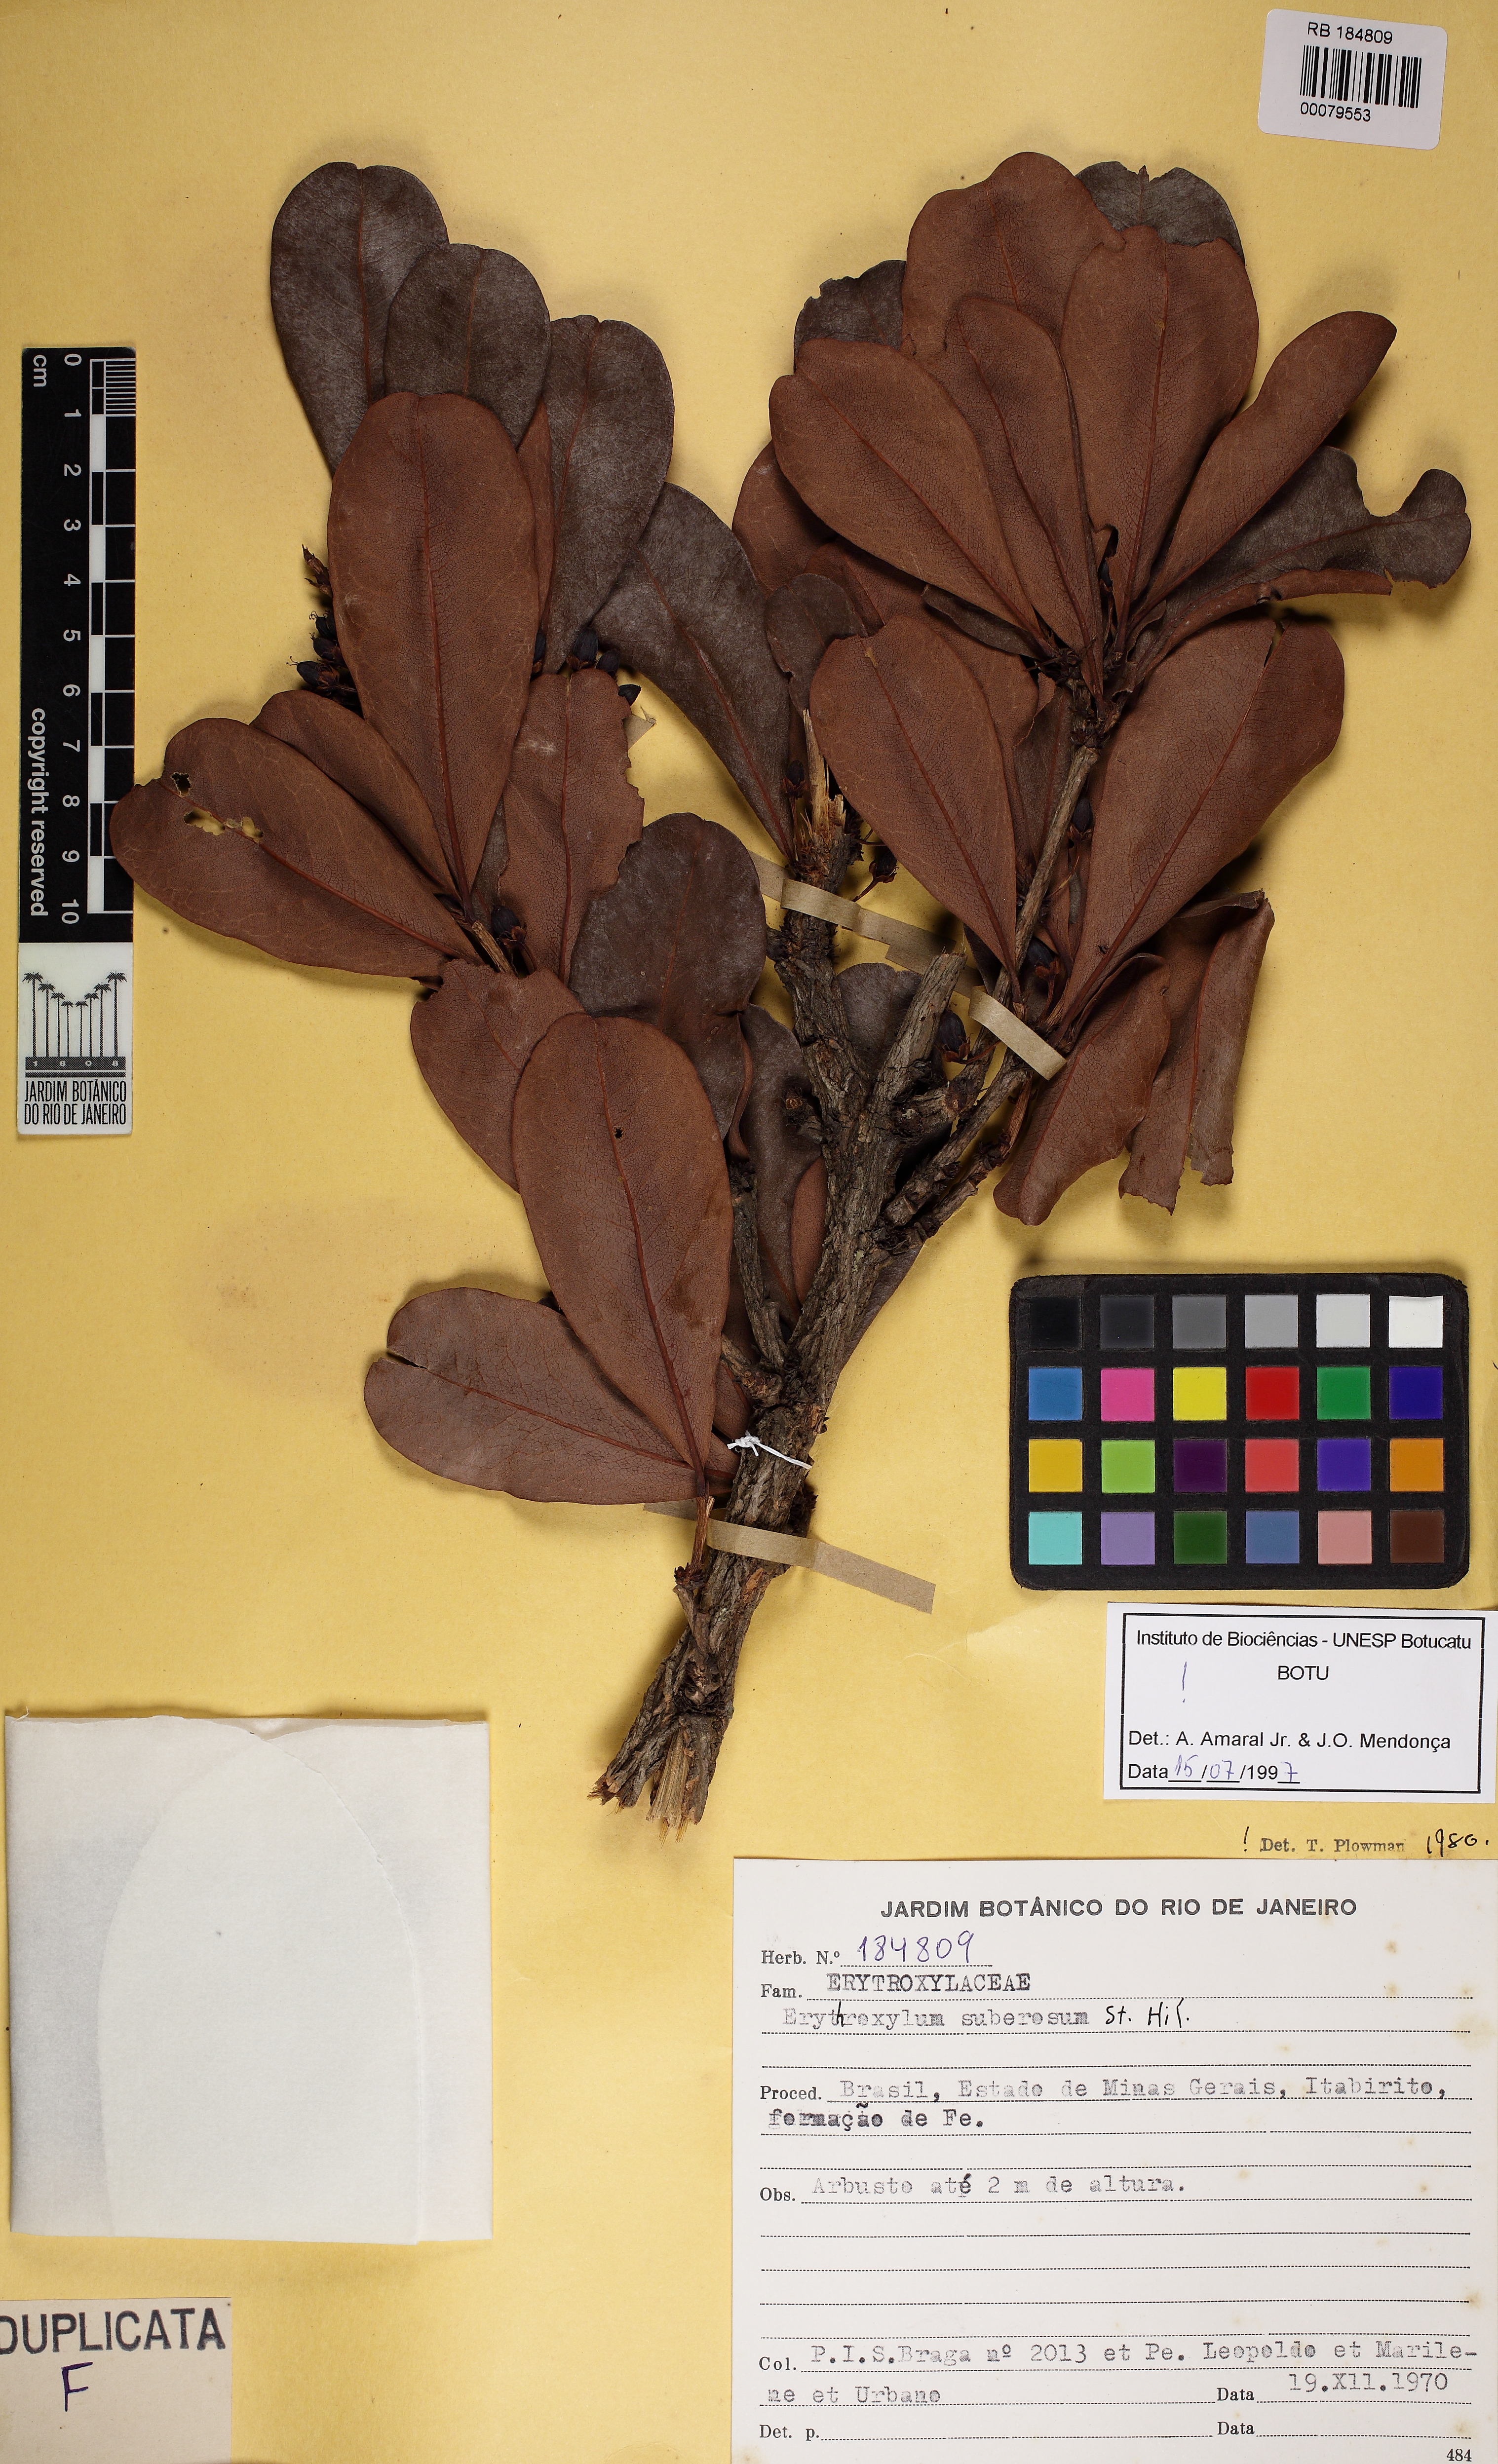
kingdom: Plantae
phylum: Tracheophyta
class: Magnoliopsida
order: Malpighiales
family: Erythroxylaceae
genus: Erythroxylum
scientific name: Erythroxylum subracemosum
